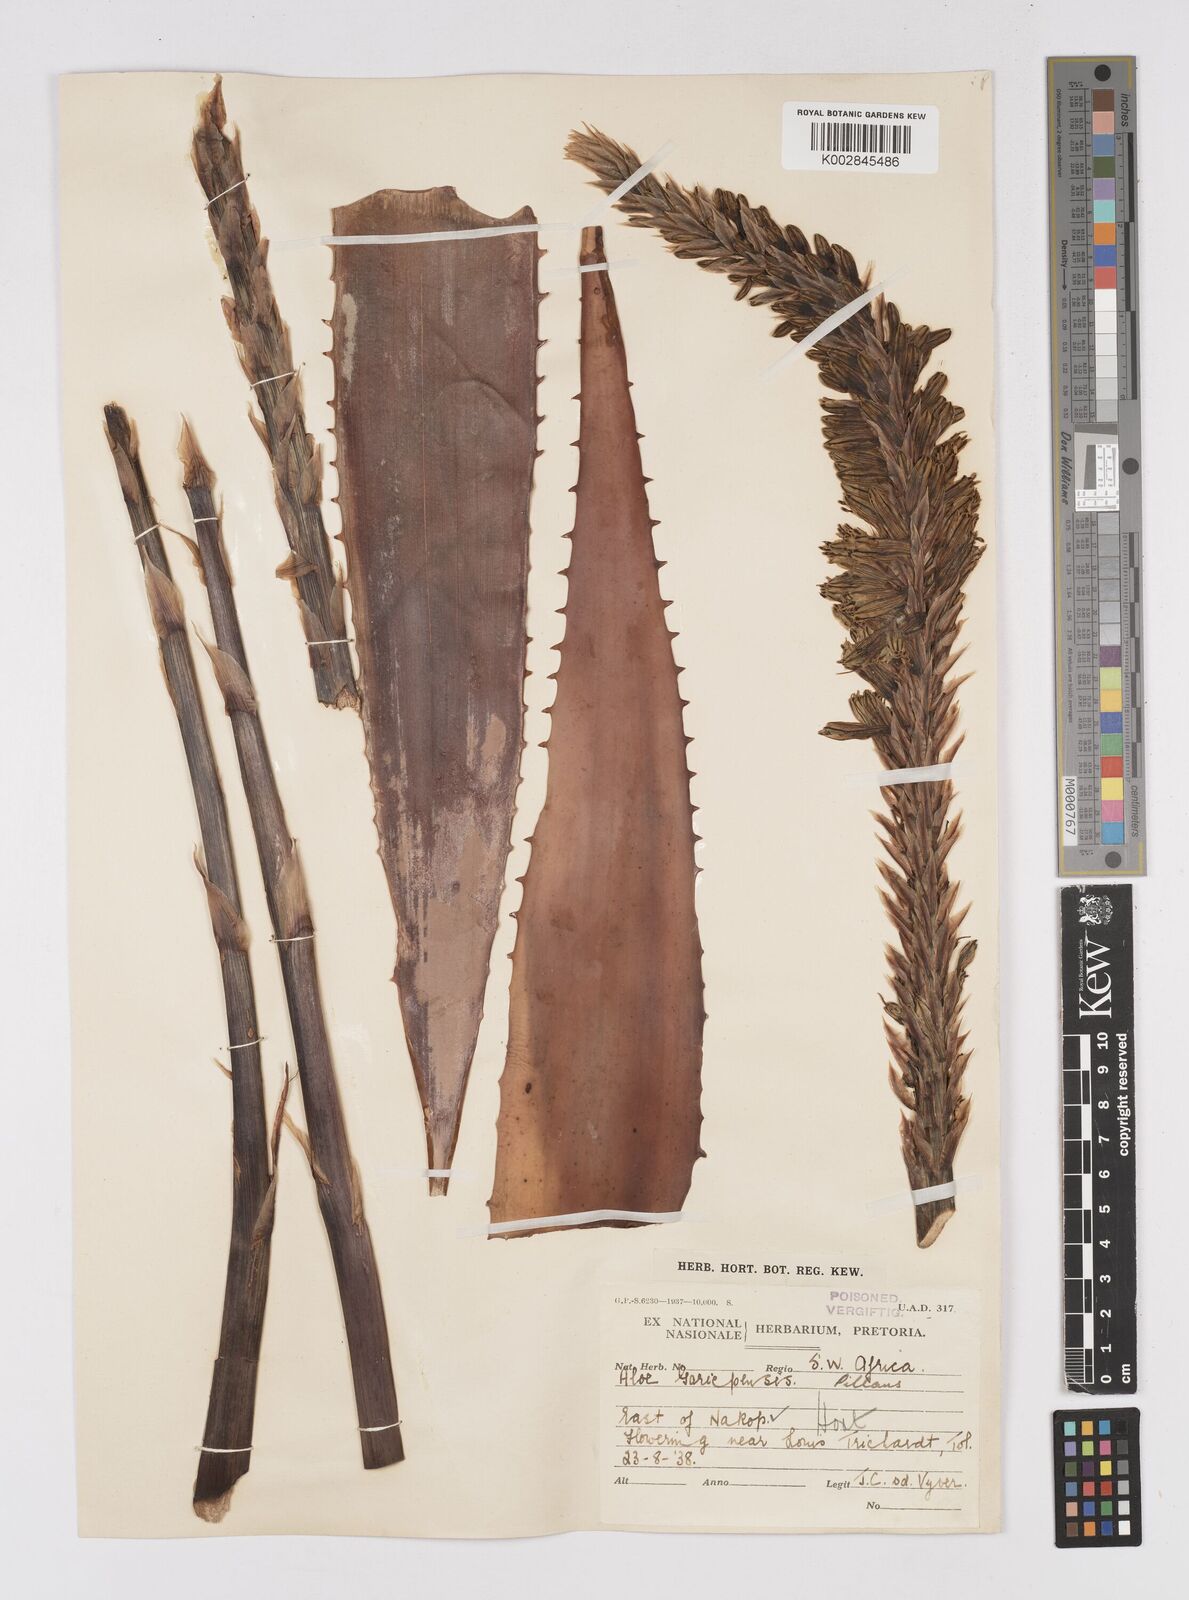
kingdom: Plantae
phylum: Tracheophyta
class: Liliopsida
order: Asparagales
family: Asphodelaceae
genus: Aloe
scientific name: Aloe gariepensis
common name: Orange river aloe
